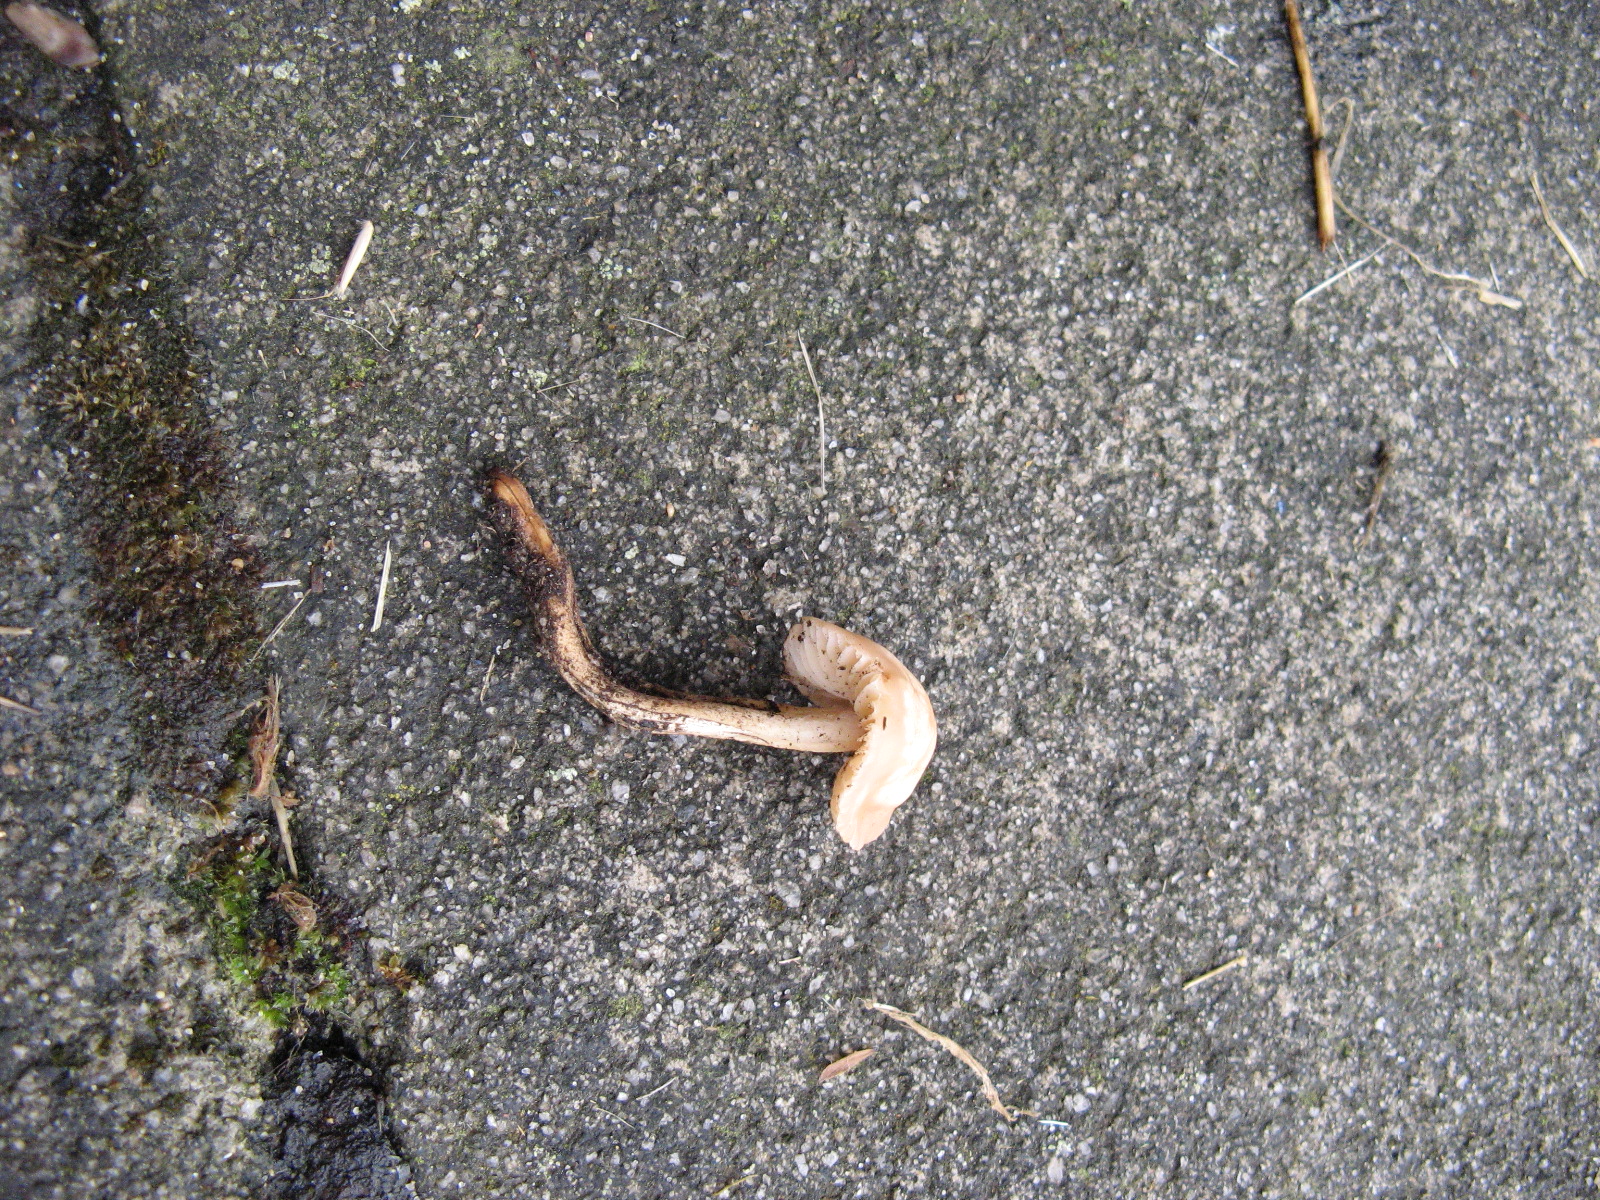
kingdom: Fungi
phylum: Basidiomycota
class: Agaricomycetes
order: Agaricales
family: Marasmiaceae
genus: Marasmius
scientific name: Marasmius oreades
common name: elledans-bruskhat
